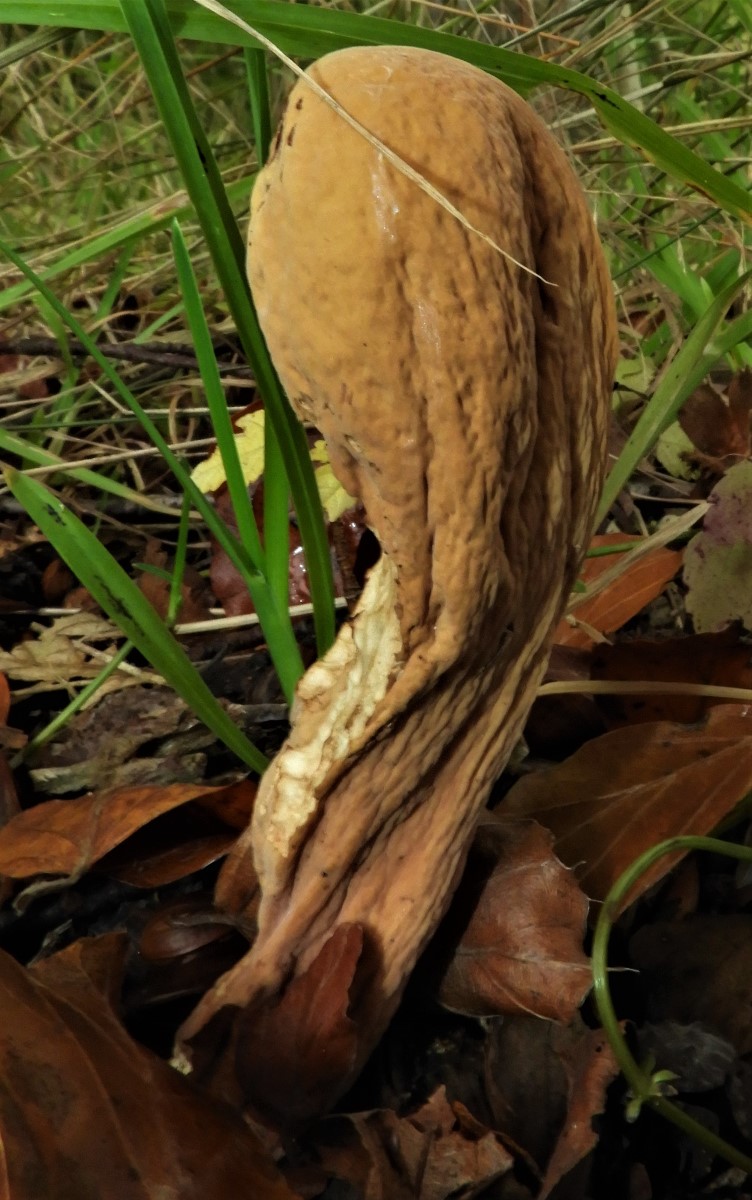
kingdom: Fungi
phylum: Basidiomycota
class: Agaricomycetes
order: Gomphales
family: Clavariadelphaceae
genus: Clavariadelphus
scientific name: Clavariadelphus pistillaris
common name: herkules-kæmpekølle
